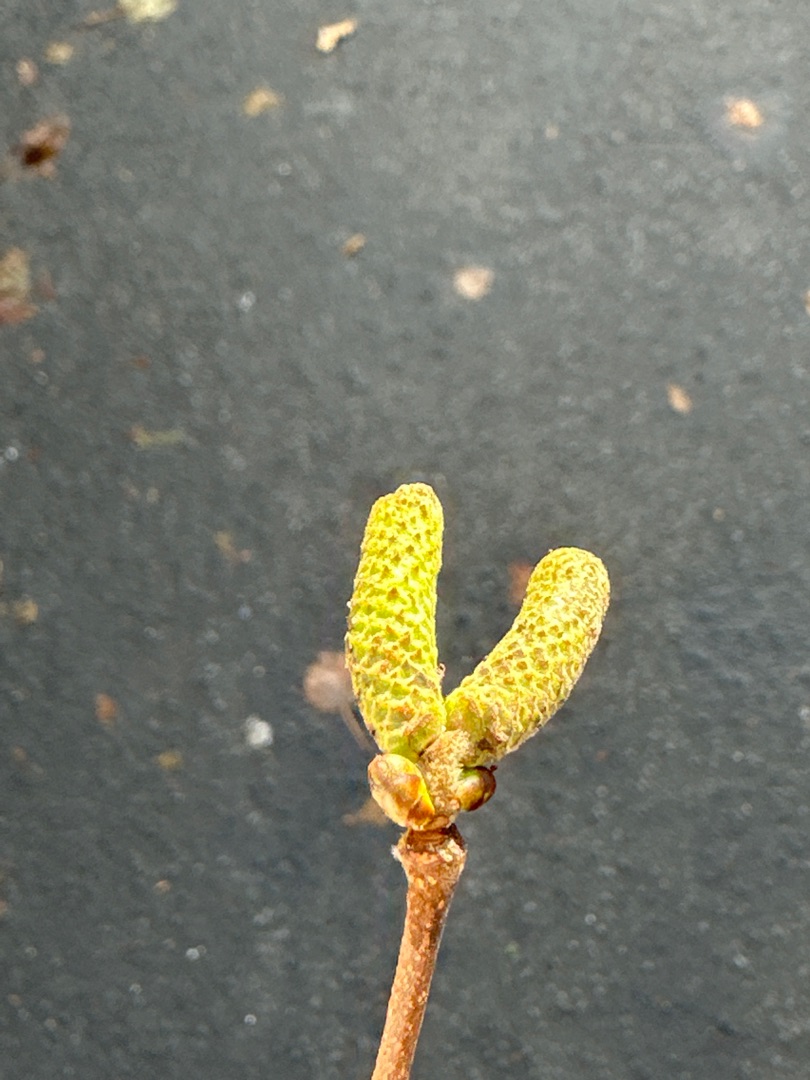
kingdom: Plantae
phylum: Tracheophyta
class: Magnoliopsida
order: Fagales
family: Betulaceae
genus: Corylus
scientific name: Corylus avellana
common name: Hassel
